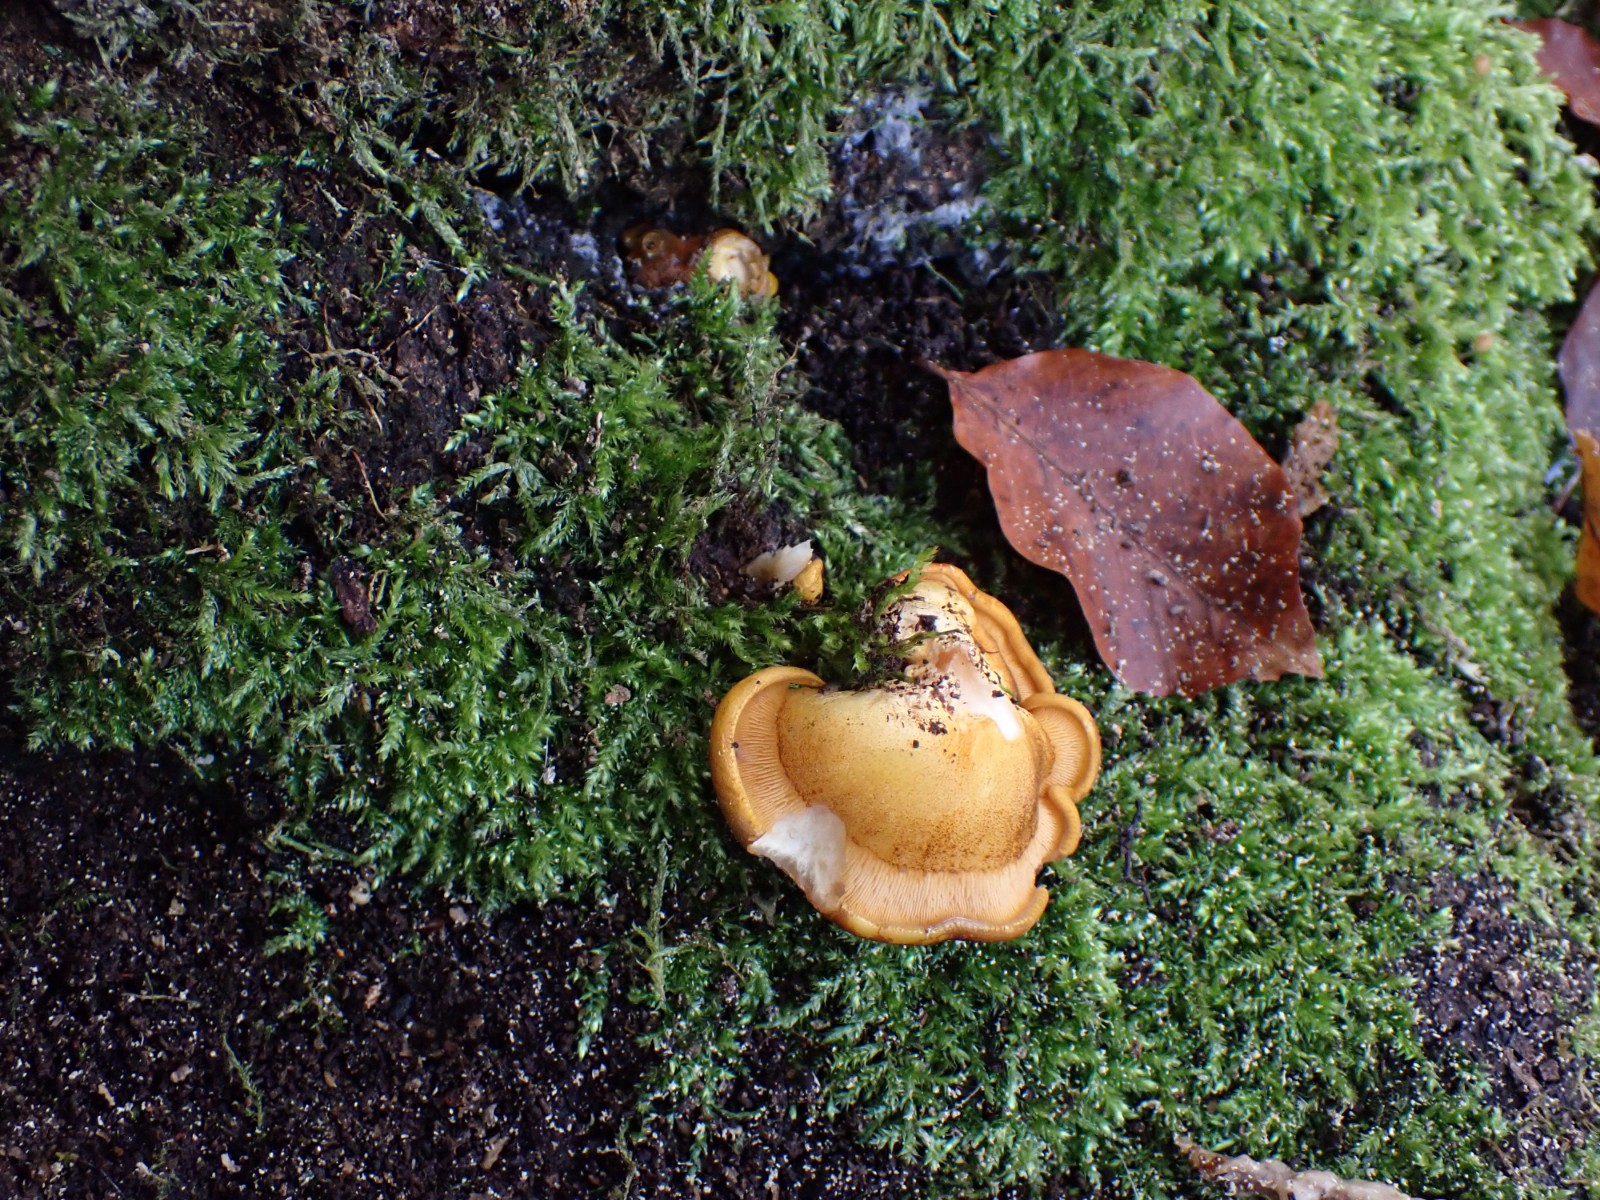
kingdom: Fungi
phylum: Basidiomycota
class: Agaricomycetes
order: Agaricales
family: Sarcomyxaceae
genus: Sarcomyxa
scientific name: Sarcomyxa serotina
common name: gummihat
